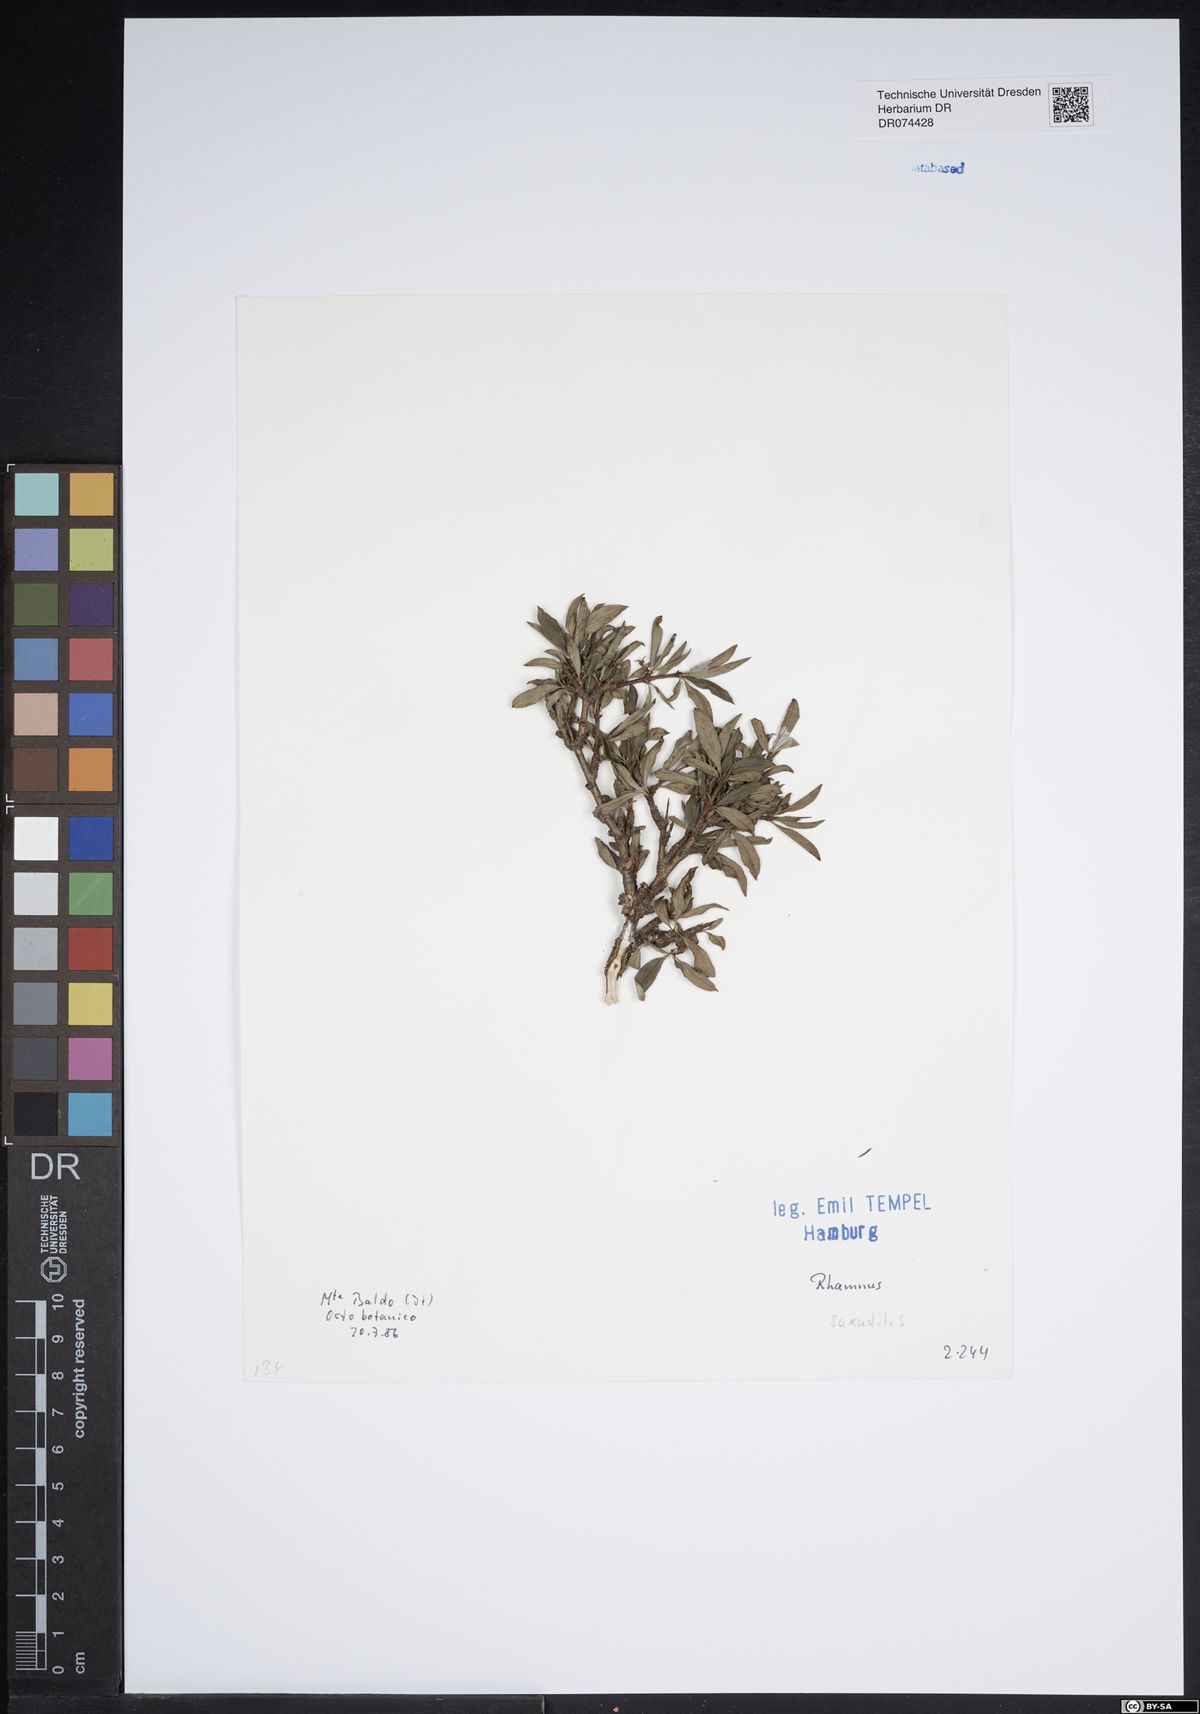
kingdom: Plantae
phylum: Tracheophyta
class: Magnoliopsida
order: Rosales
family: Rhamnaceae
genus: Rhamnus
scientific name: Rhamnus saxatilis
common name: Rock buckthorn
